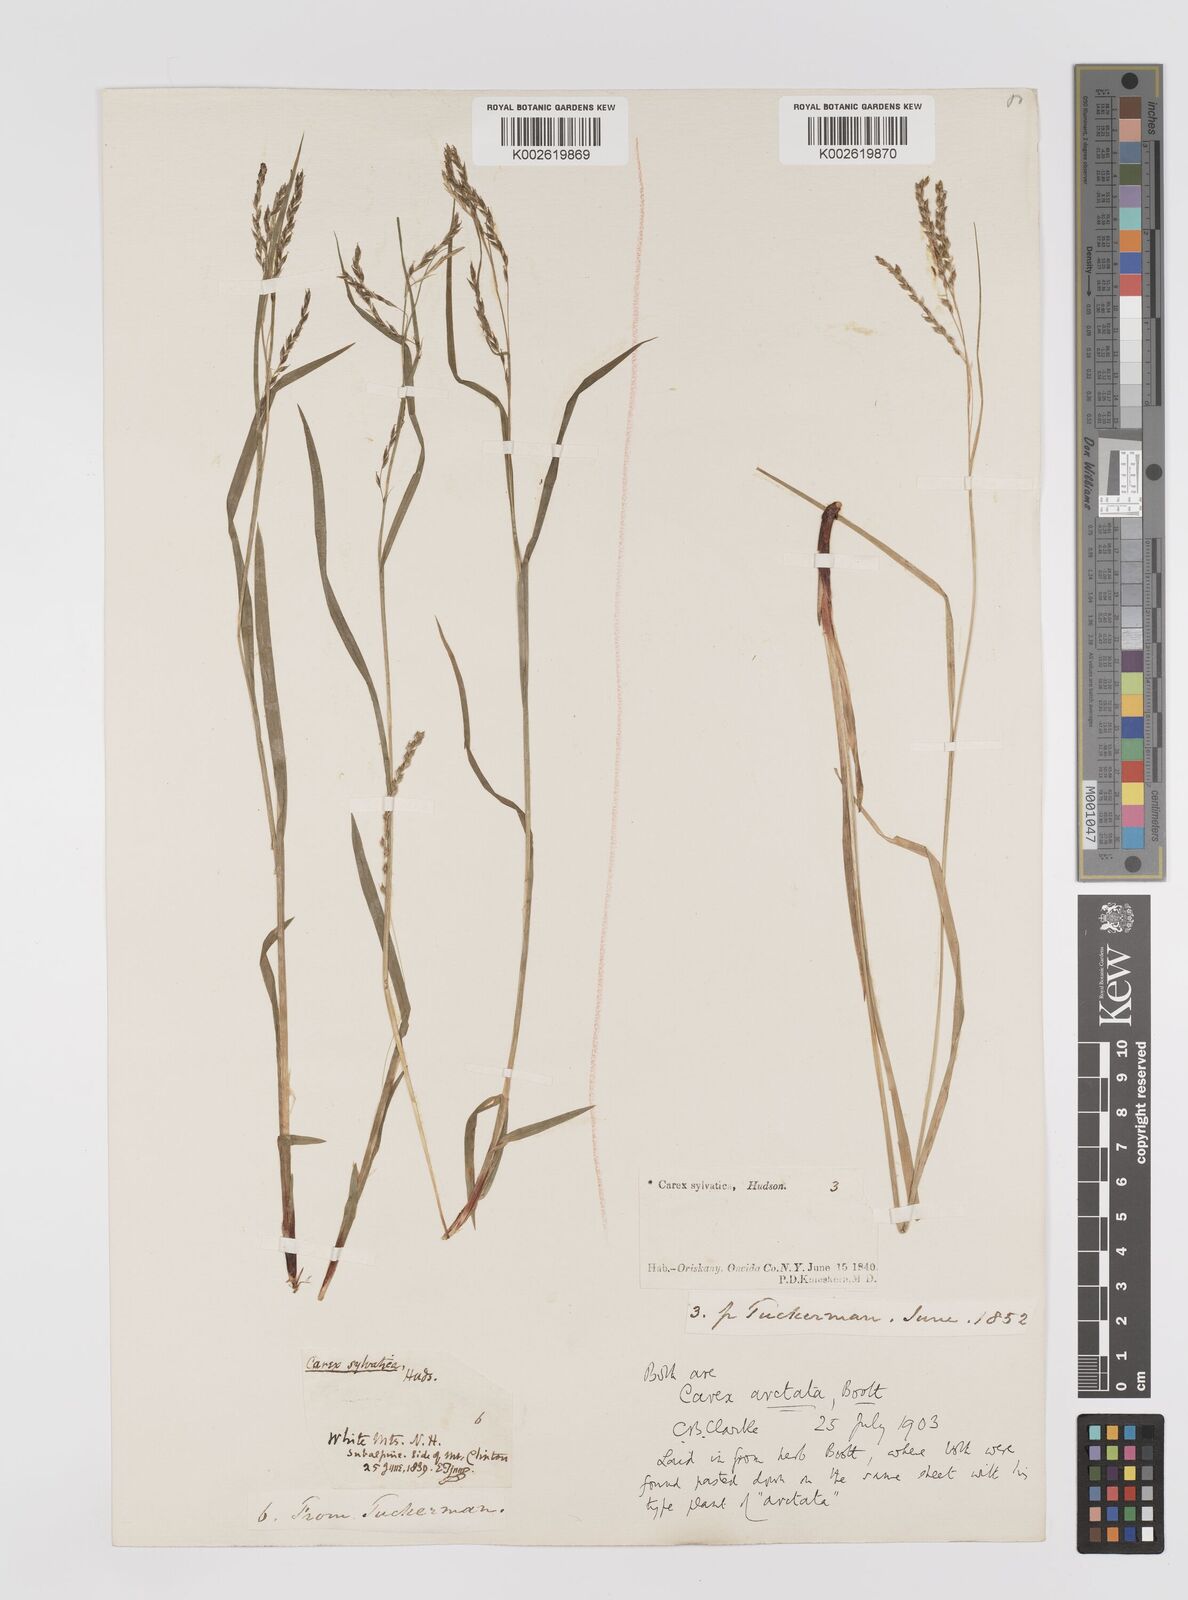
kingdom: Plantae
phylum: Tracheophyta
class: Liliopsida
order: Poales
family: Cyperaceae
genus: Carex
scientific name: Carex arctata
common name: Black sedge
